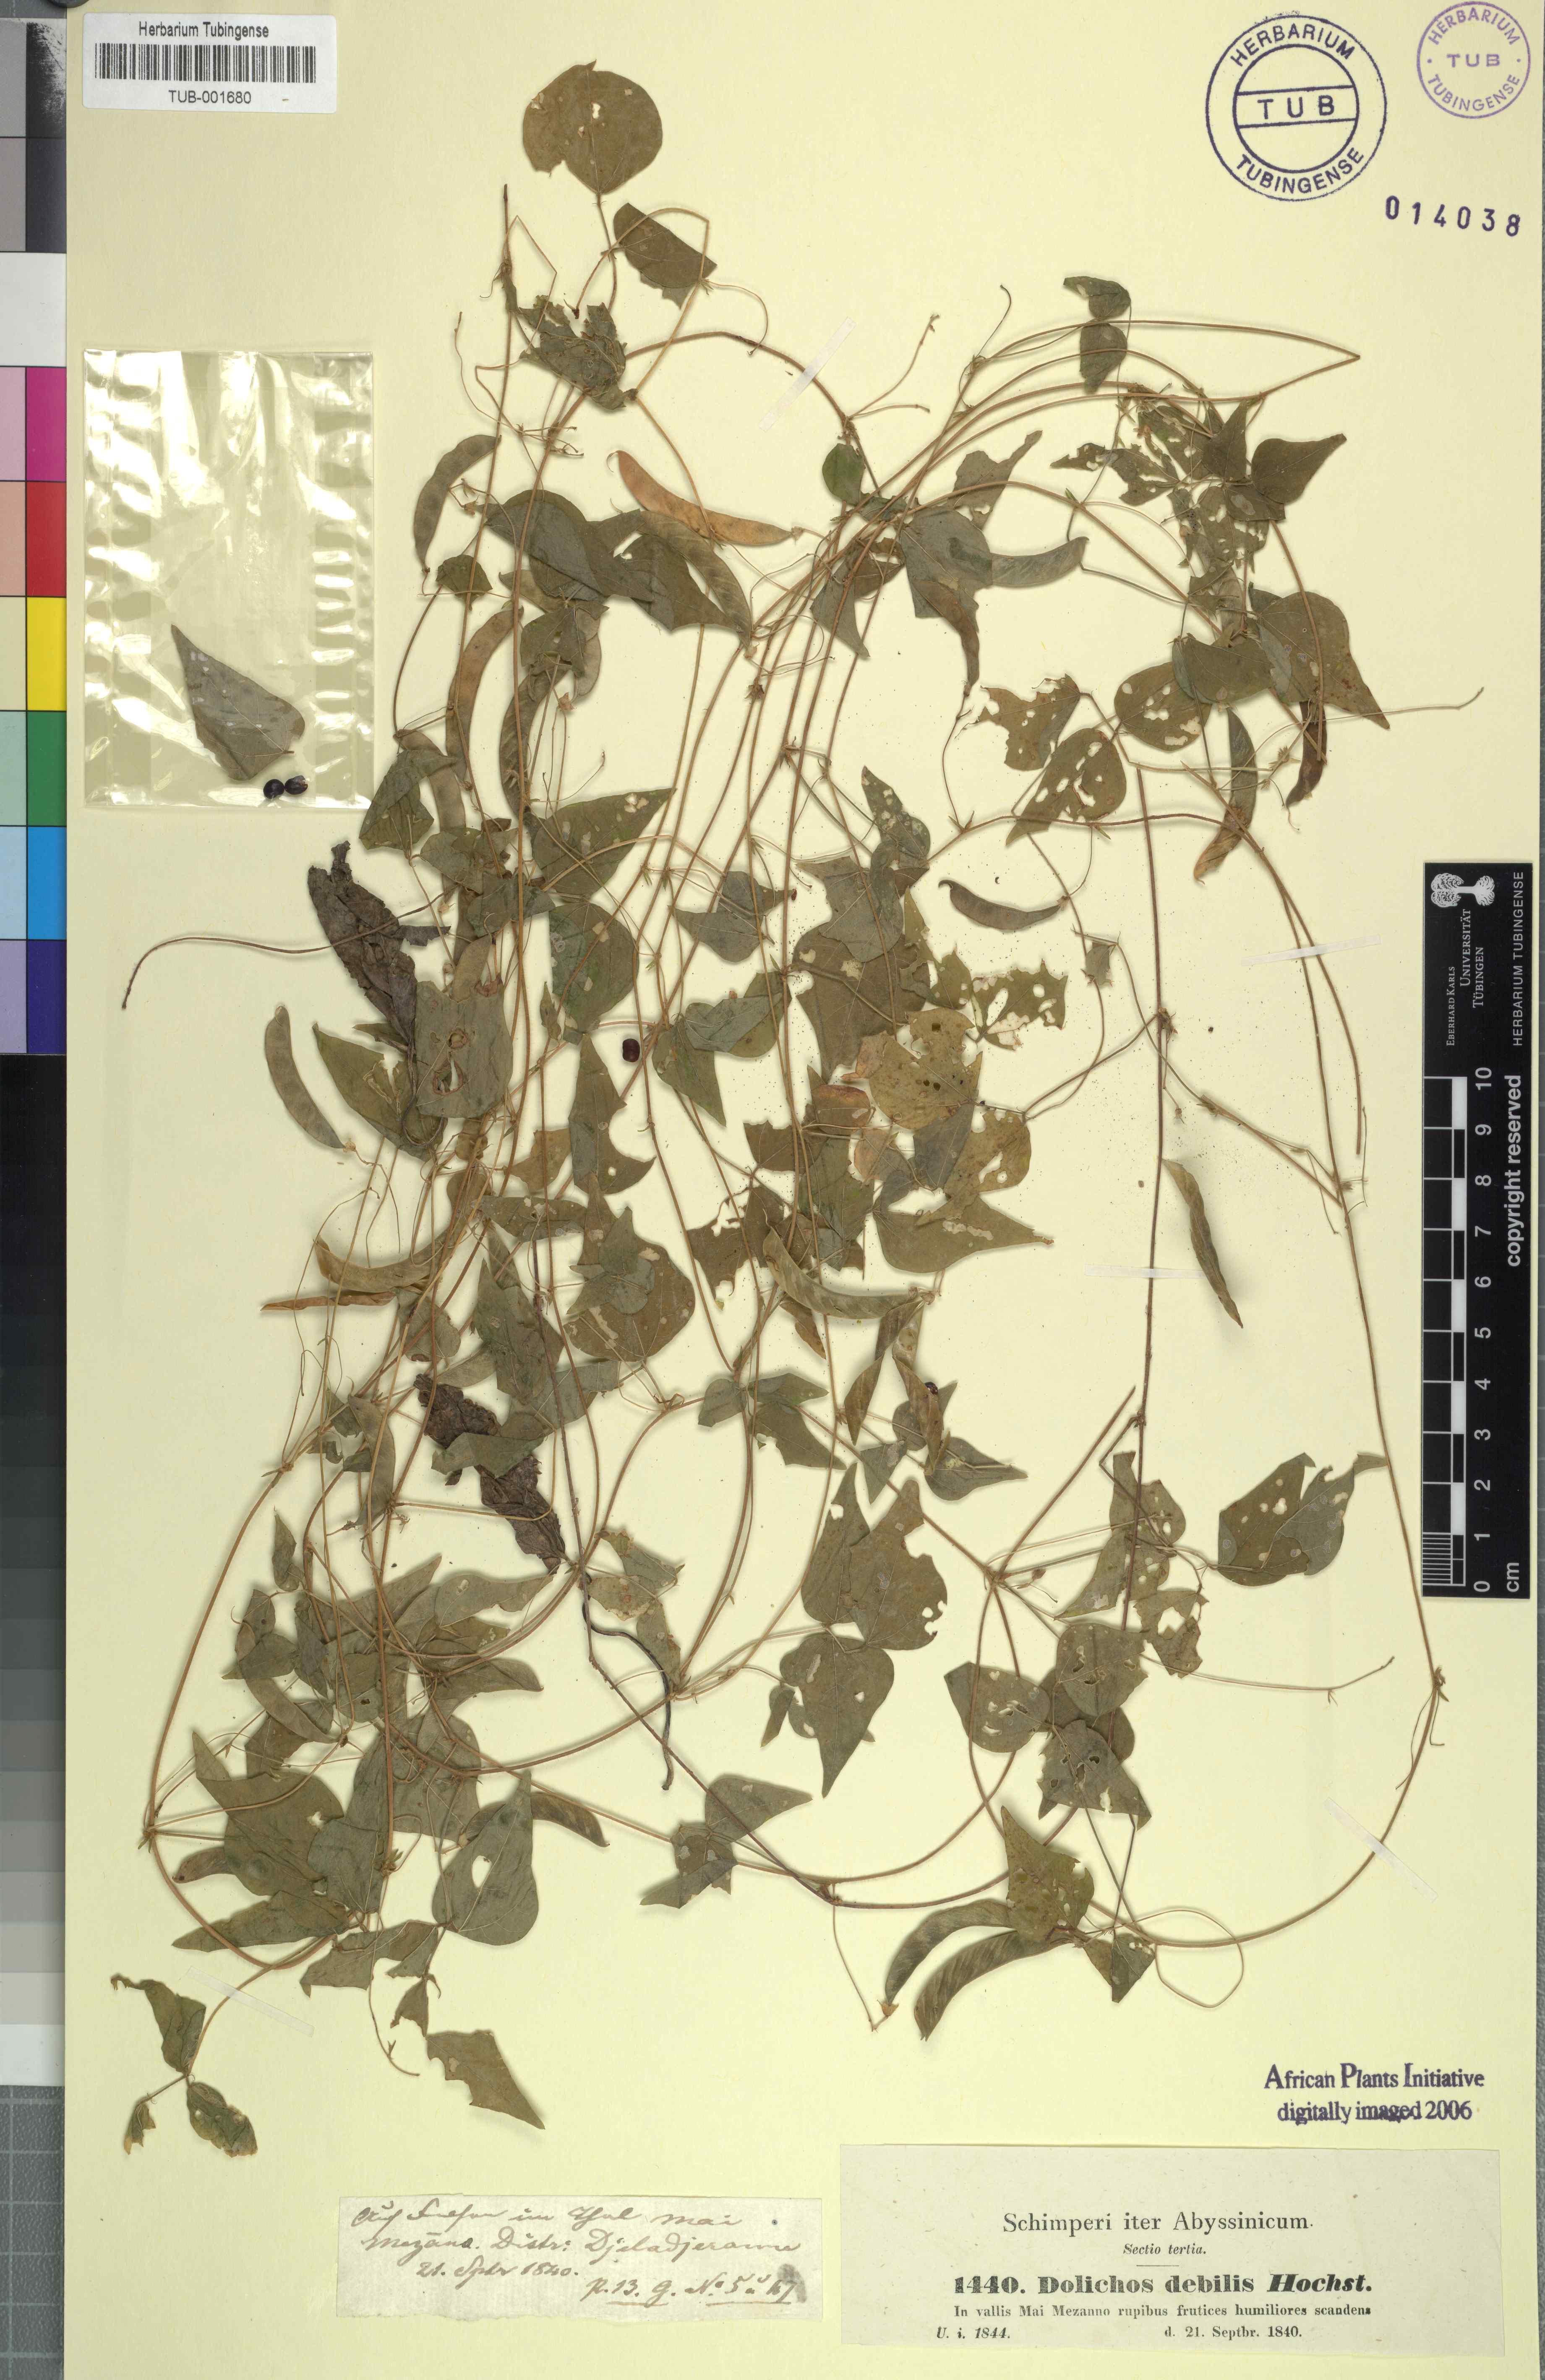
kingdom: Plantae
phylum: Tracheophyta
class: Magnoliopsida
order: Fabales
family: Fabaceae
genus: Dolichos
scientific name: Dolichos trilobus
